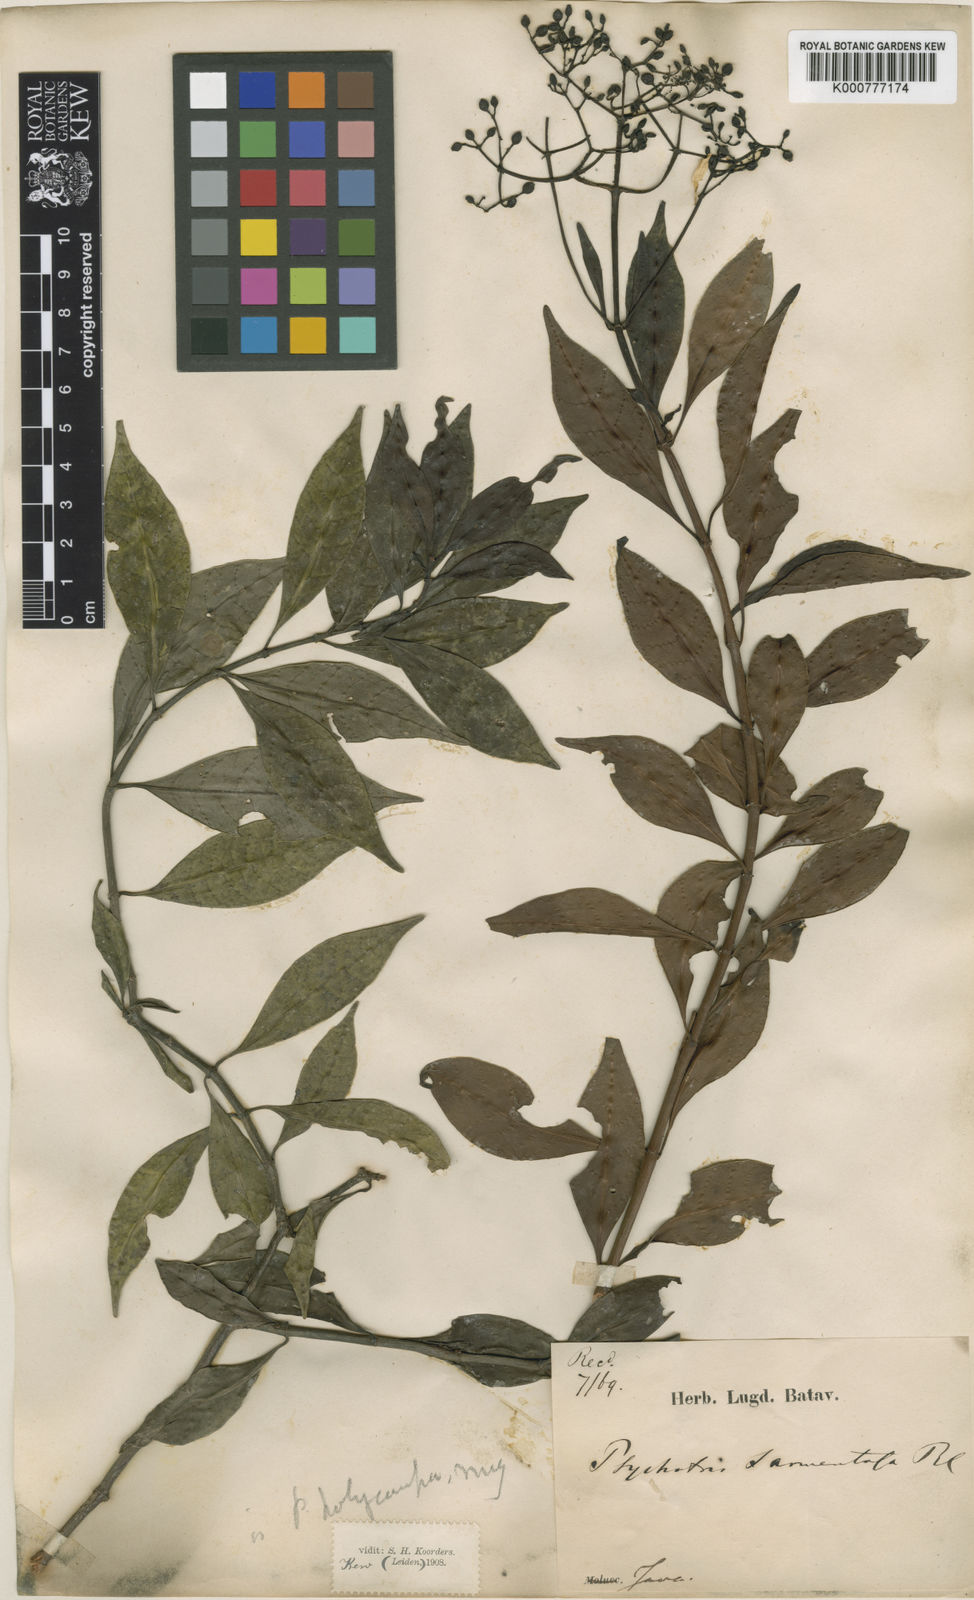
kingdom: Plantae
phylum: Tracheophyta
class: Magnoliopsida
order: Gentianales
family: Rubiaceae
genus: Psychotria
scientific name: Psychotria sarmentosa
